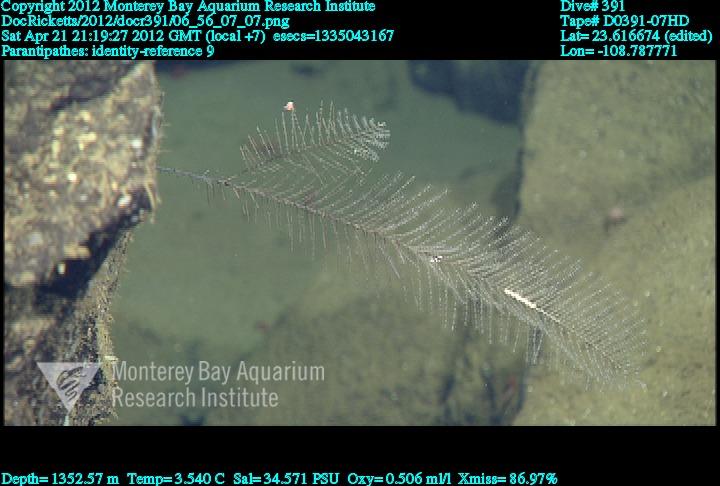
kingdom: Animalia
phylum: Cnidaria
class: Anthozoa
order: Antipatharia
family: Schizopathidae
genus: Parantipathes
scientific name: Parantipathes
